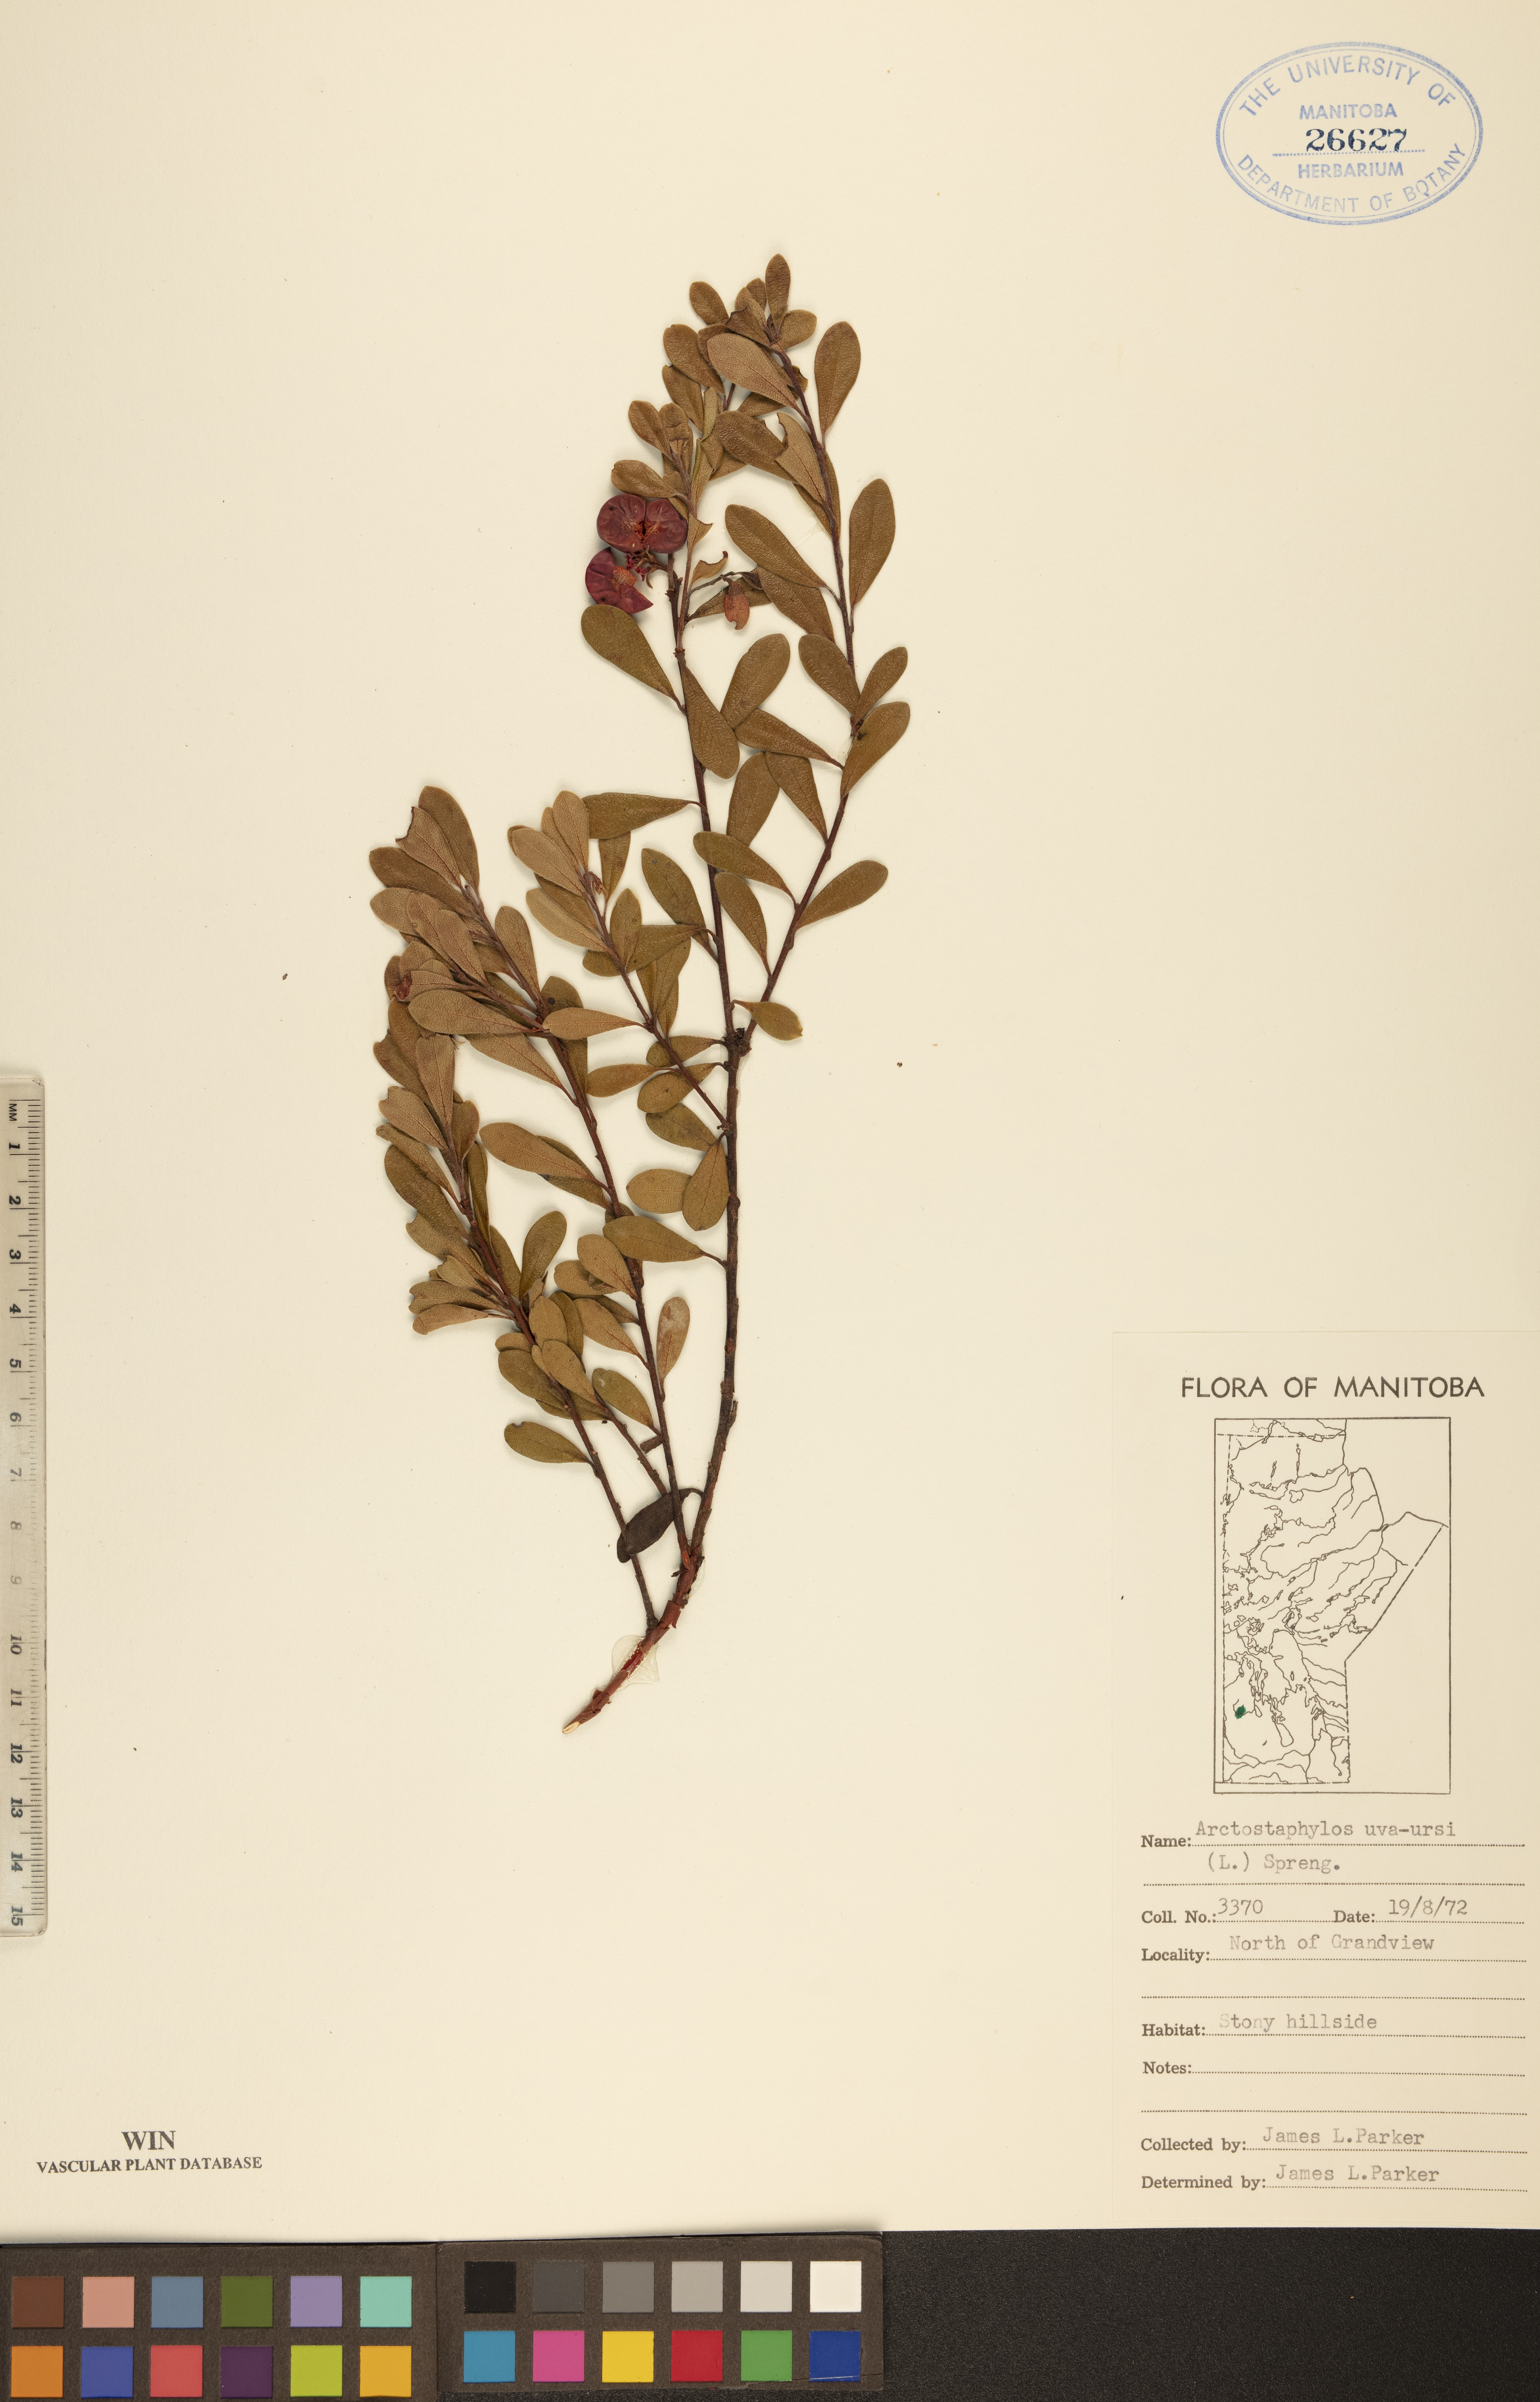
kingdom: Plantae
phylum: Tracheophyta
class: Magnoliopsida
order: Ericales
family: Ericaceae
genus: Arctostaphylos
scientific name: Arctostaphylos uva-ursi
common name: Bearberry
